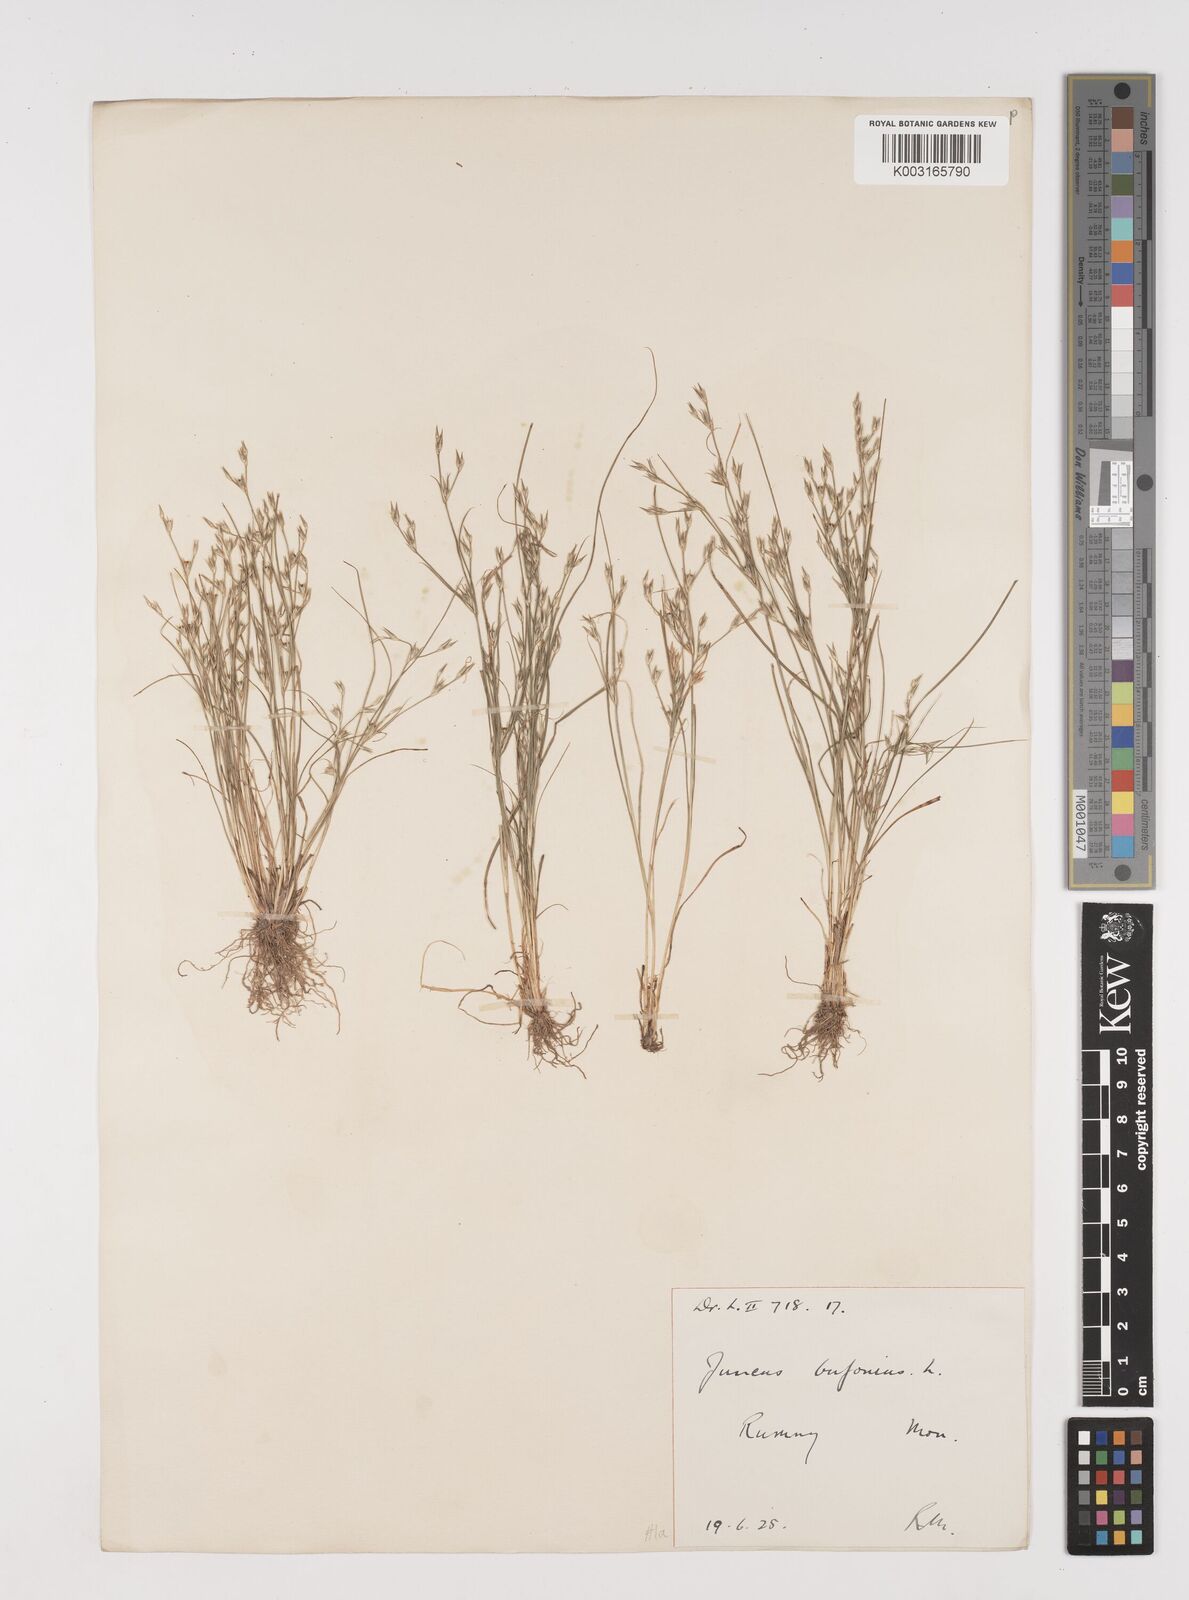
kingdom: Plantae
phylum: Tracheophyta
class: Liliopsida
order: Poales
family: Juncaceae
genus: Juncus
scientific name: Juncus bufonius
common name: Toad rush
